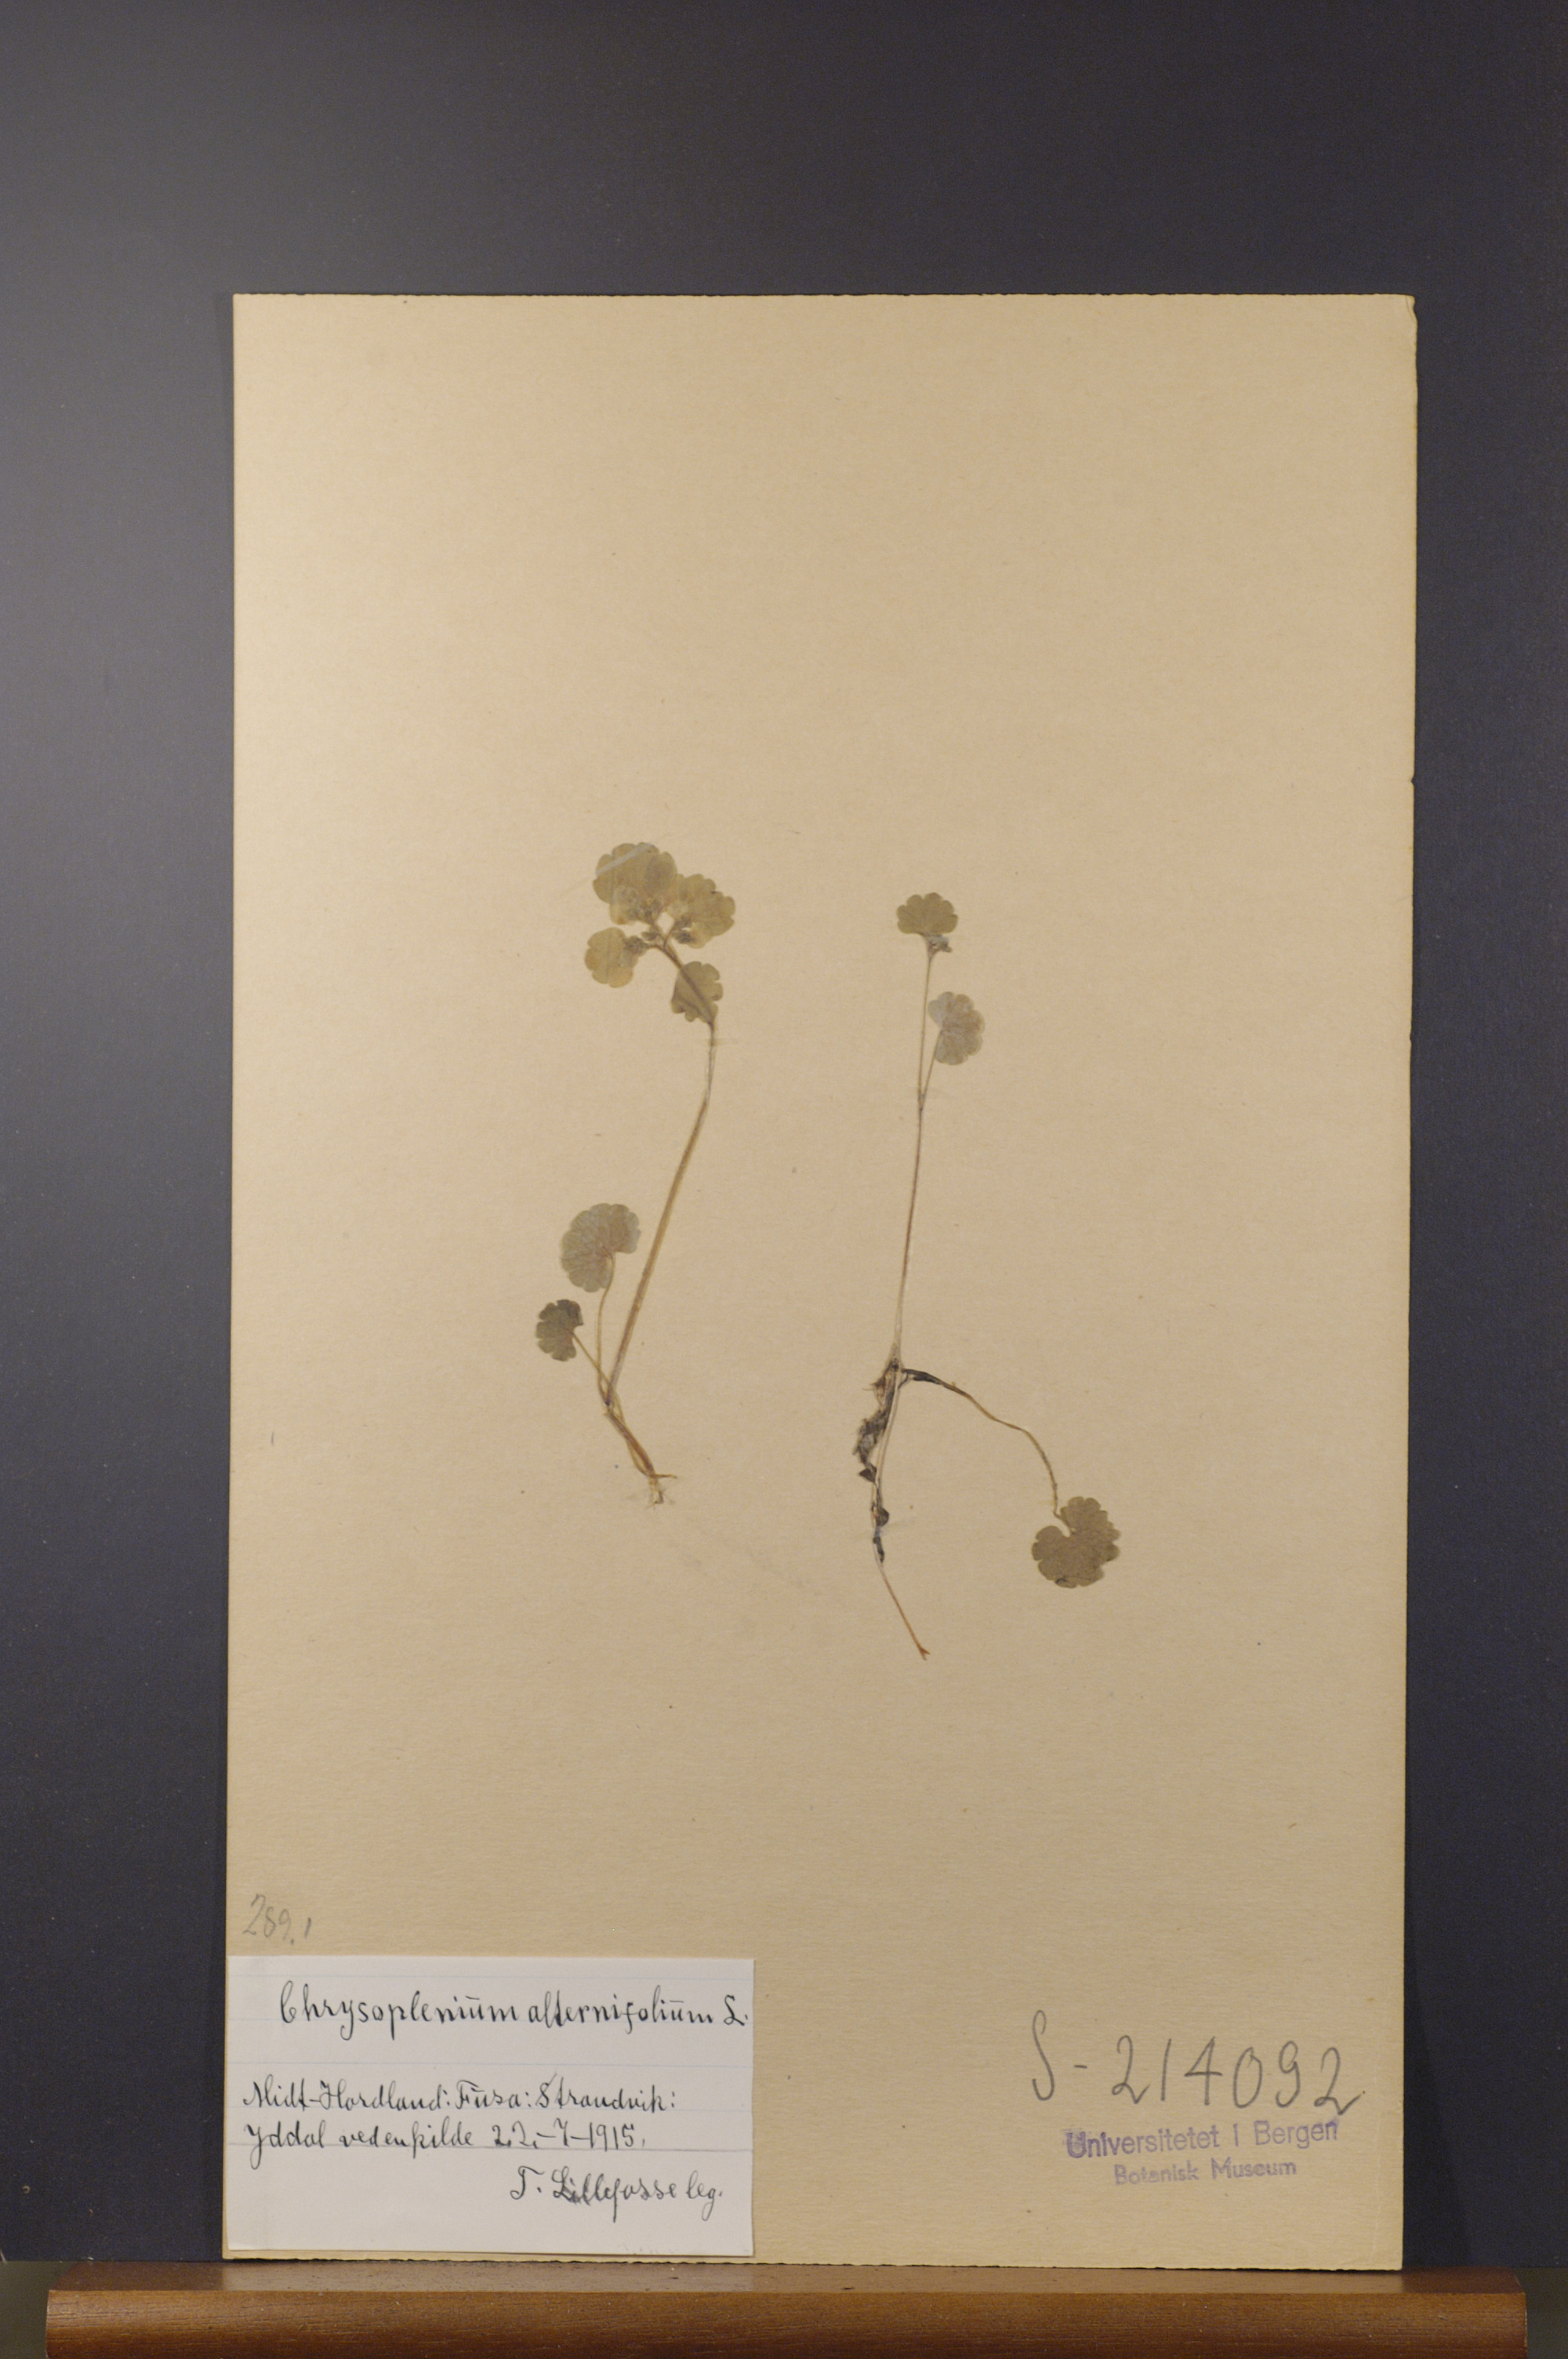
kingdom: Plantae
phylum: Tracheophyta
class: Magnoliopsida
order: Saxifragales
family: Saxifragaceae
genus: Chrysosplenium
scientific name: Chrysosplenium alternifolium
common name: Alternate-leaved golden-saxifrage
